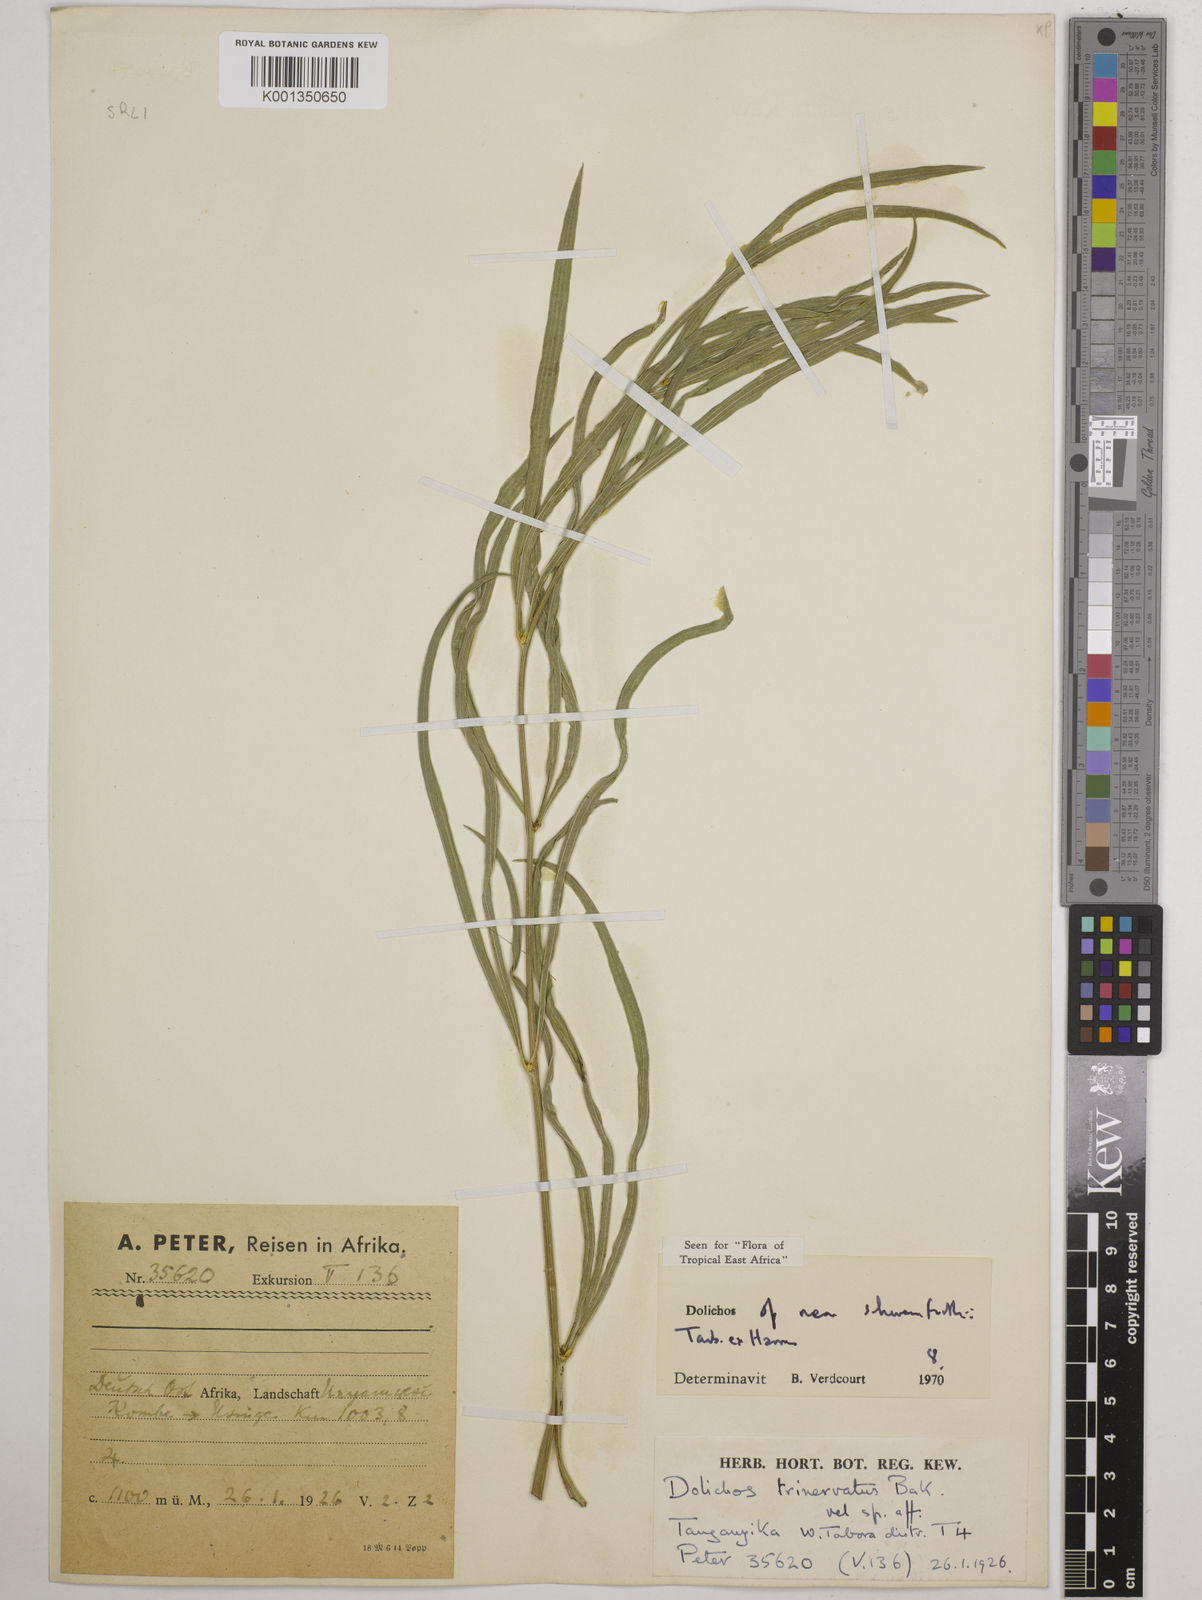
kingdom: Plantae
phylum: Tracheophyta
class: Magnoliopsida
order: Fabales
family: Fabaceae
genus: Dolichos
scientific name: Dolichos schweinfurthii
